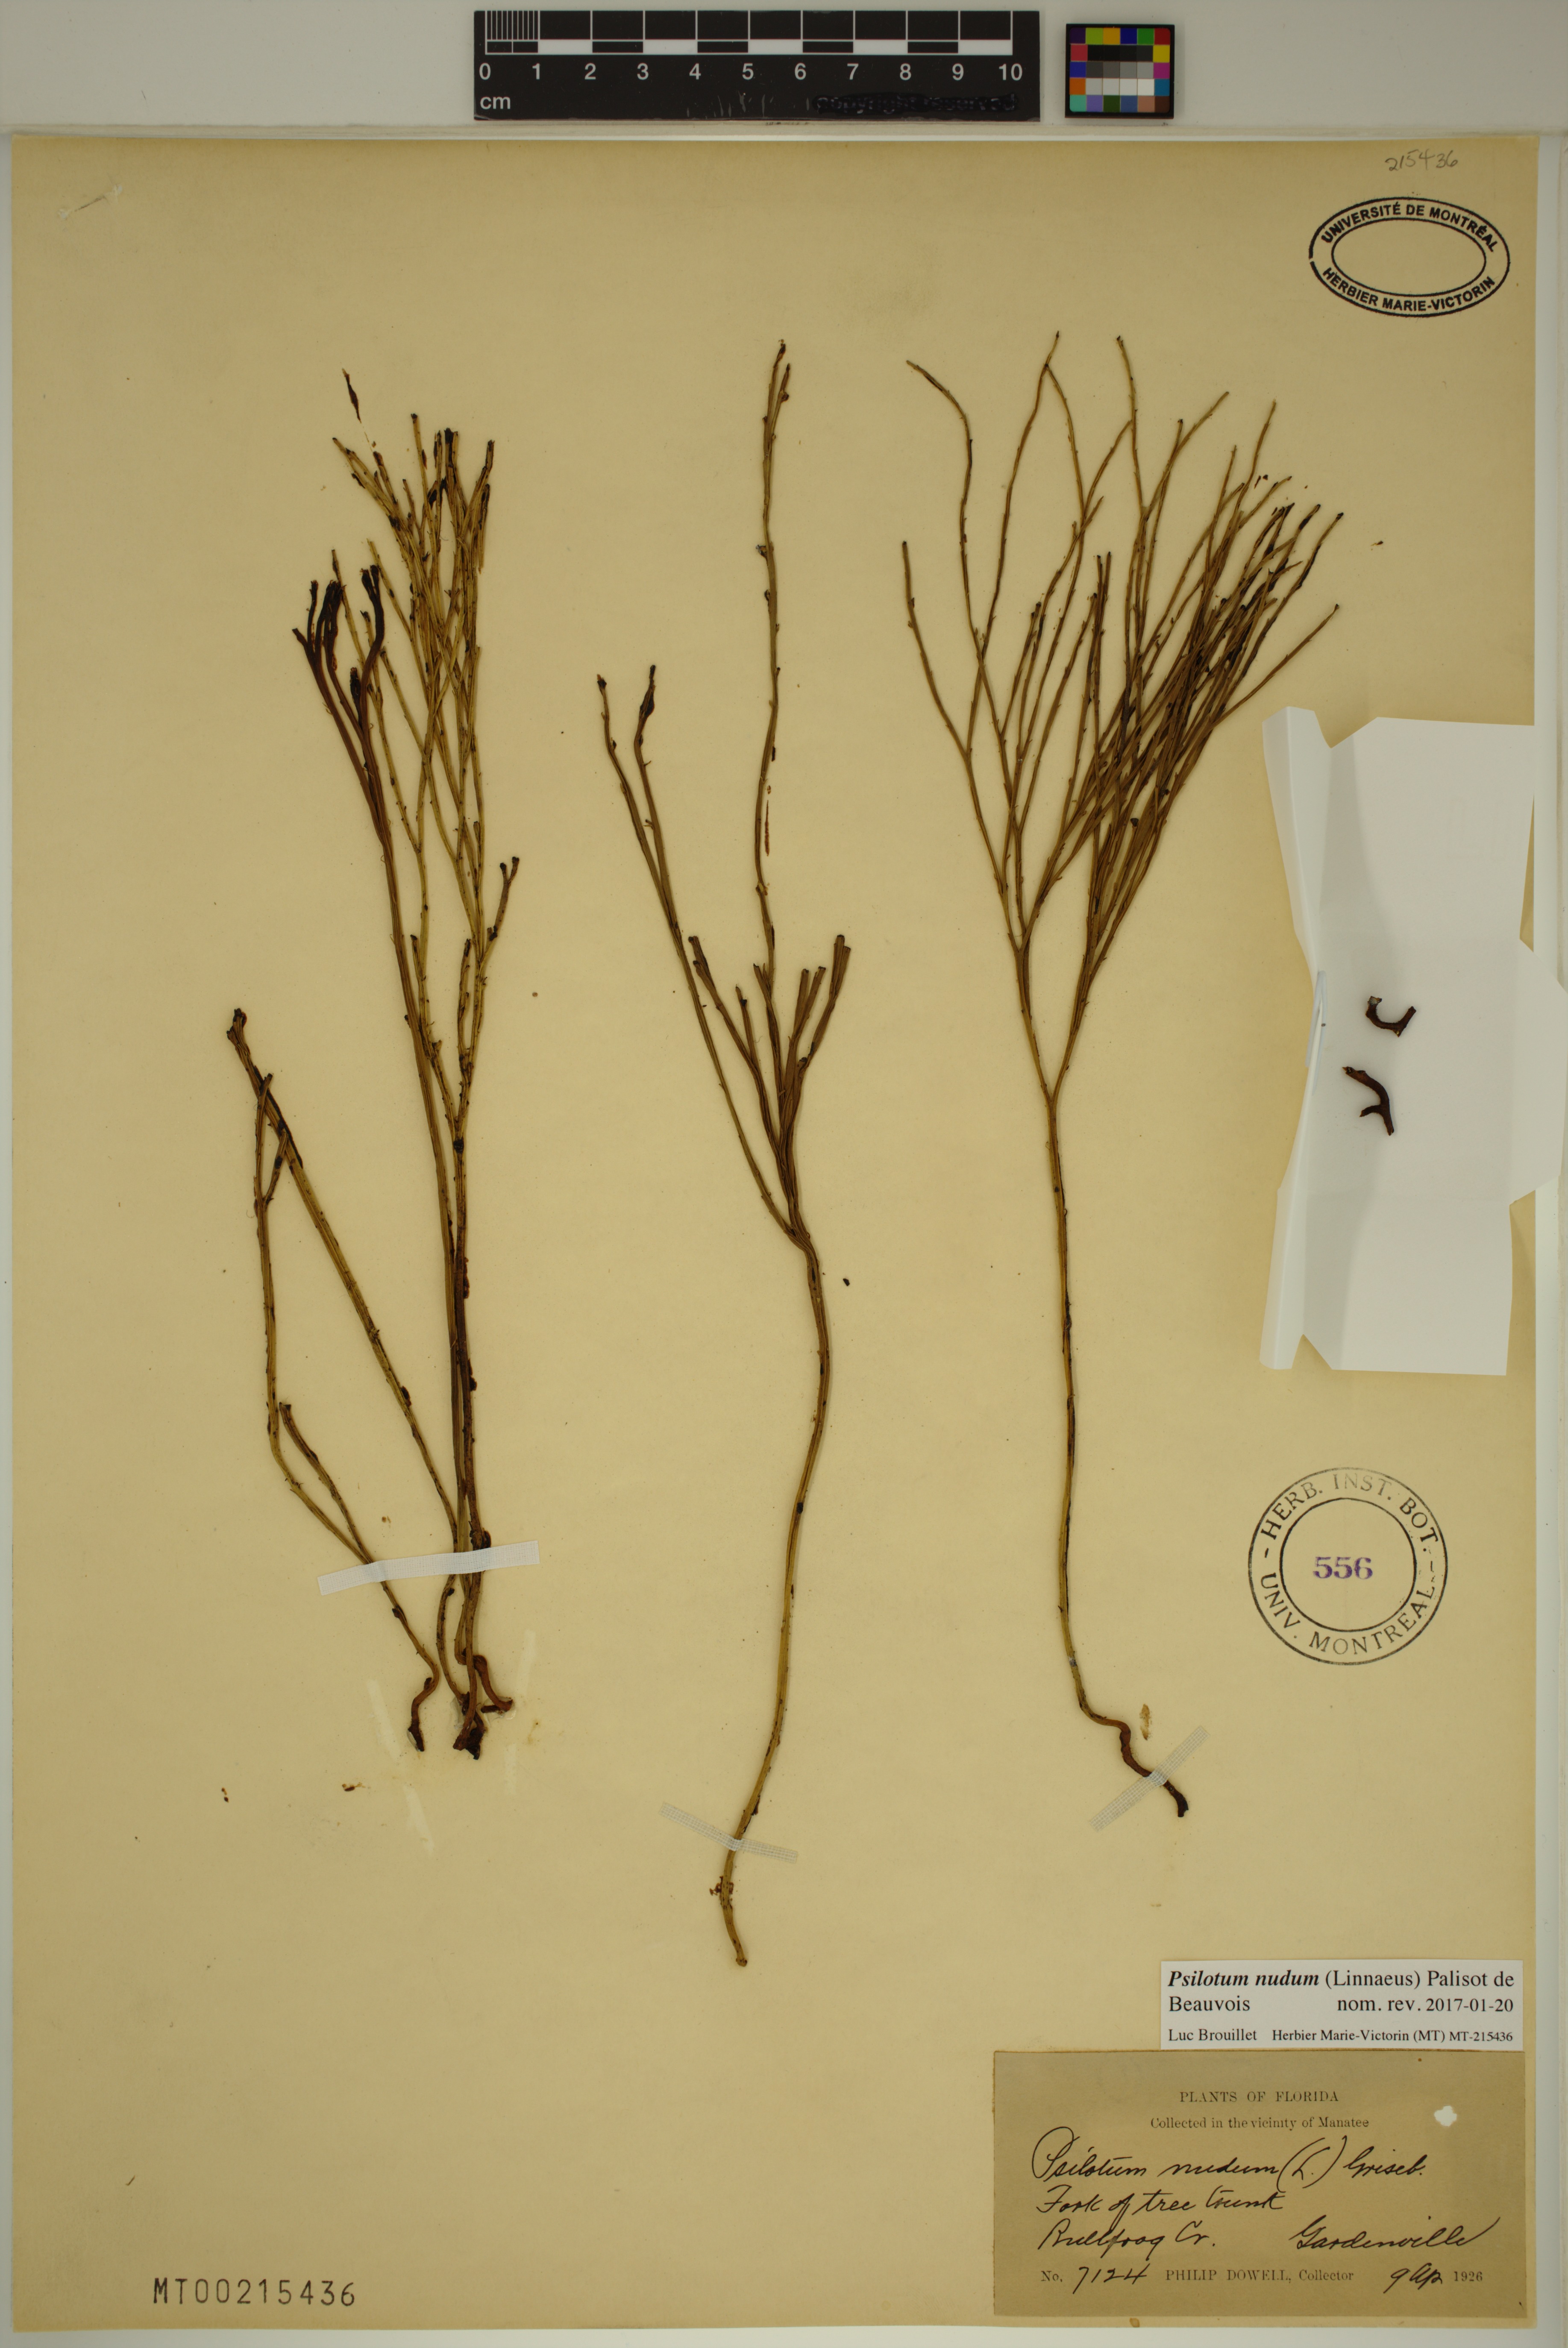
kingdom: Plantae
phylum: Tracheophyta
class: Polypodiopsida
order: Psilotales
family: Psilotaceae
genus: Psilotum
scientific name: Psilotum nudum
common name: Skeleton fork fern
